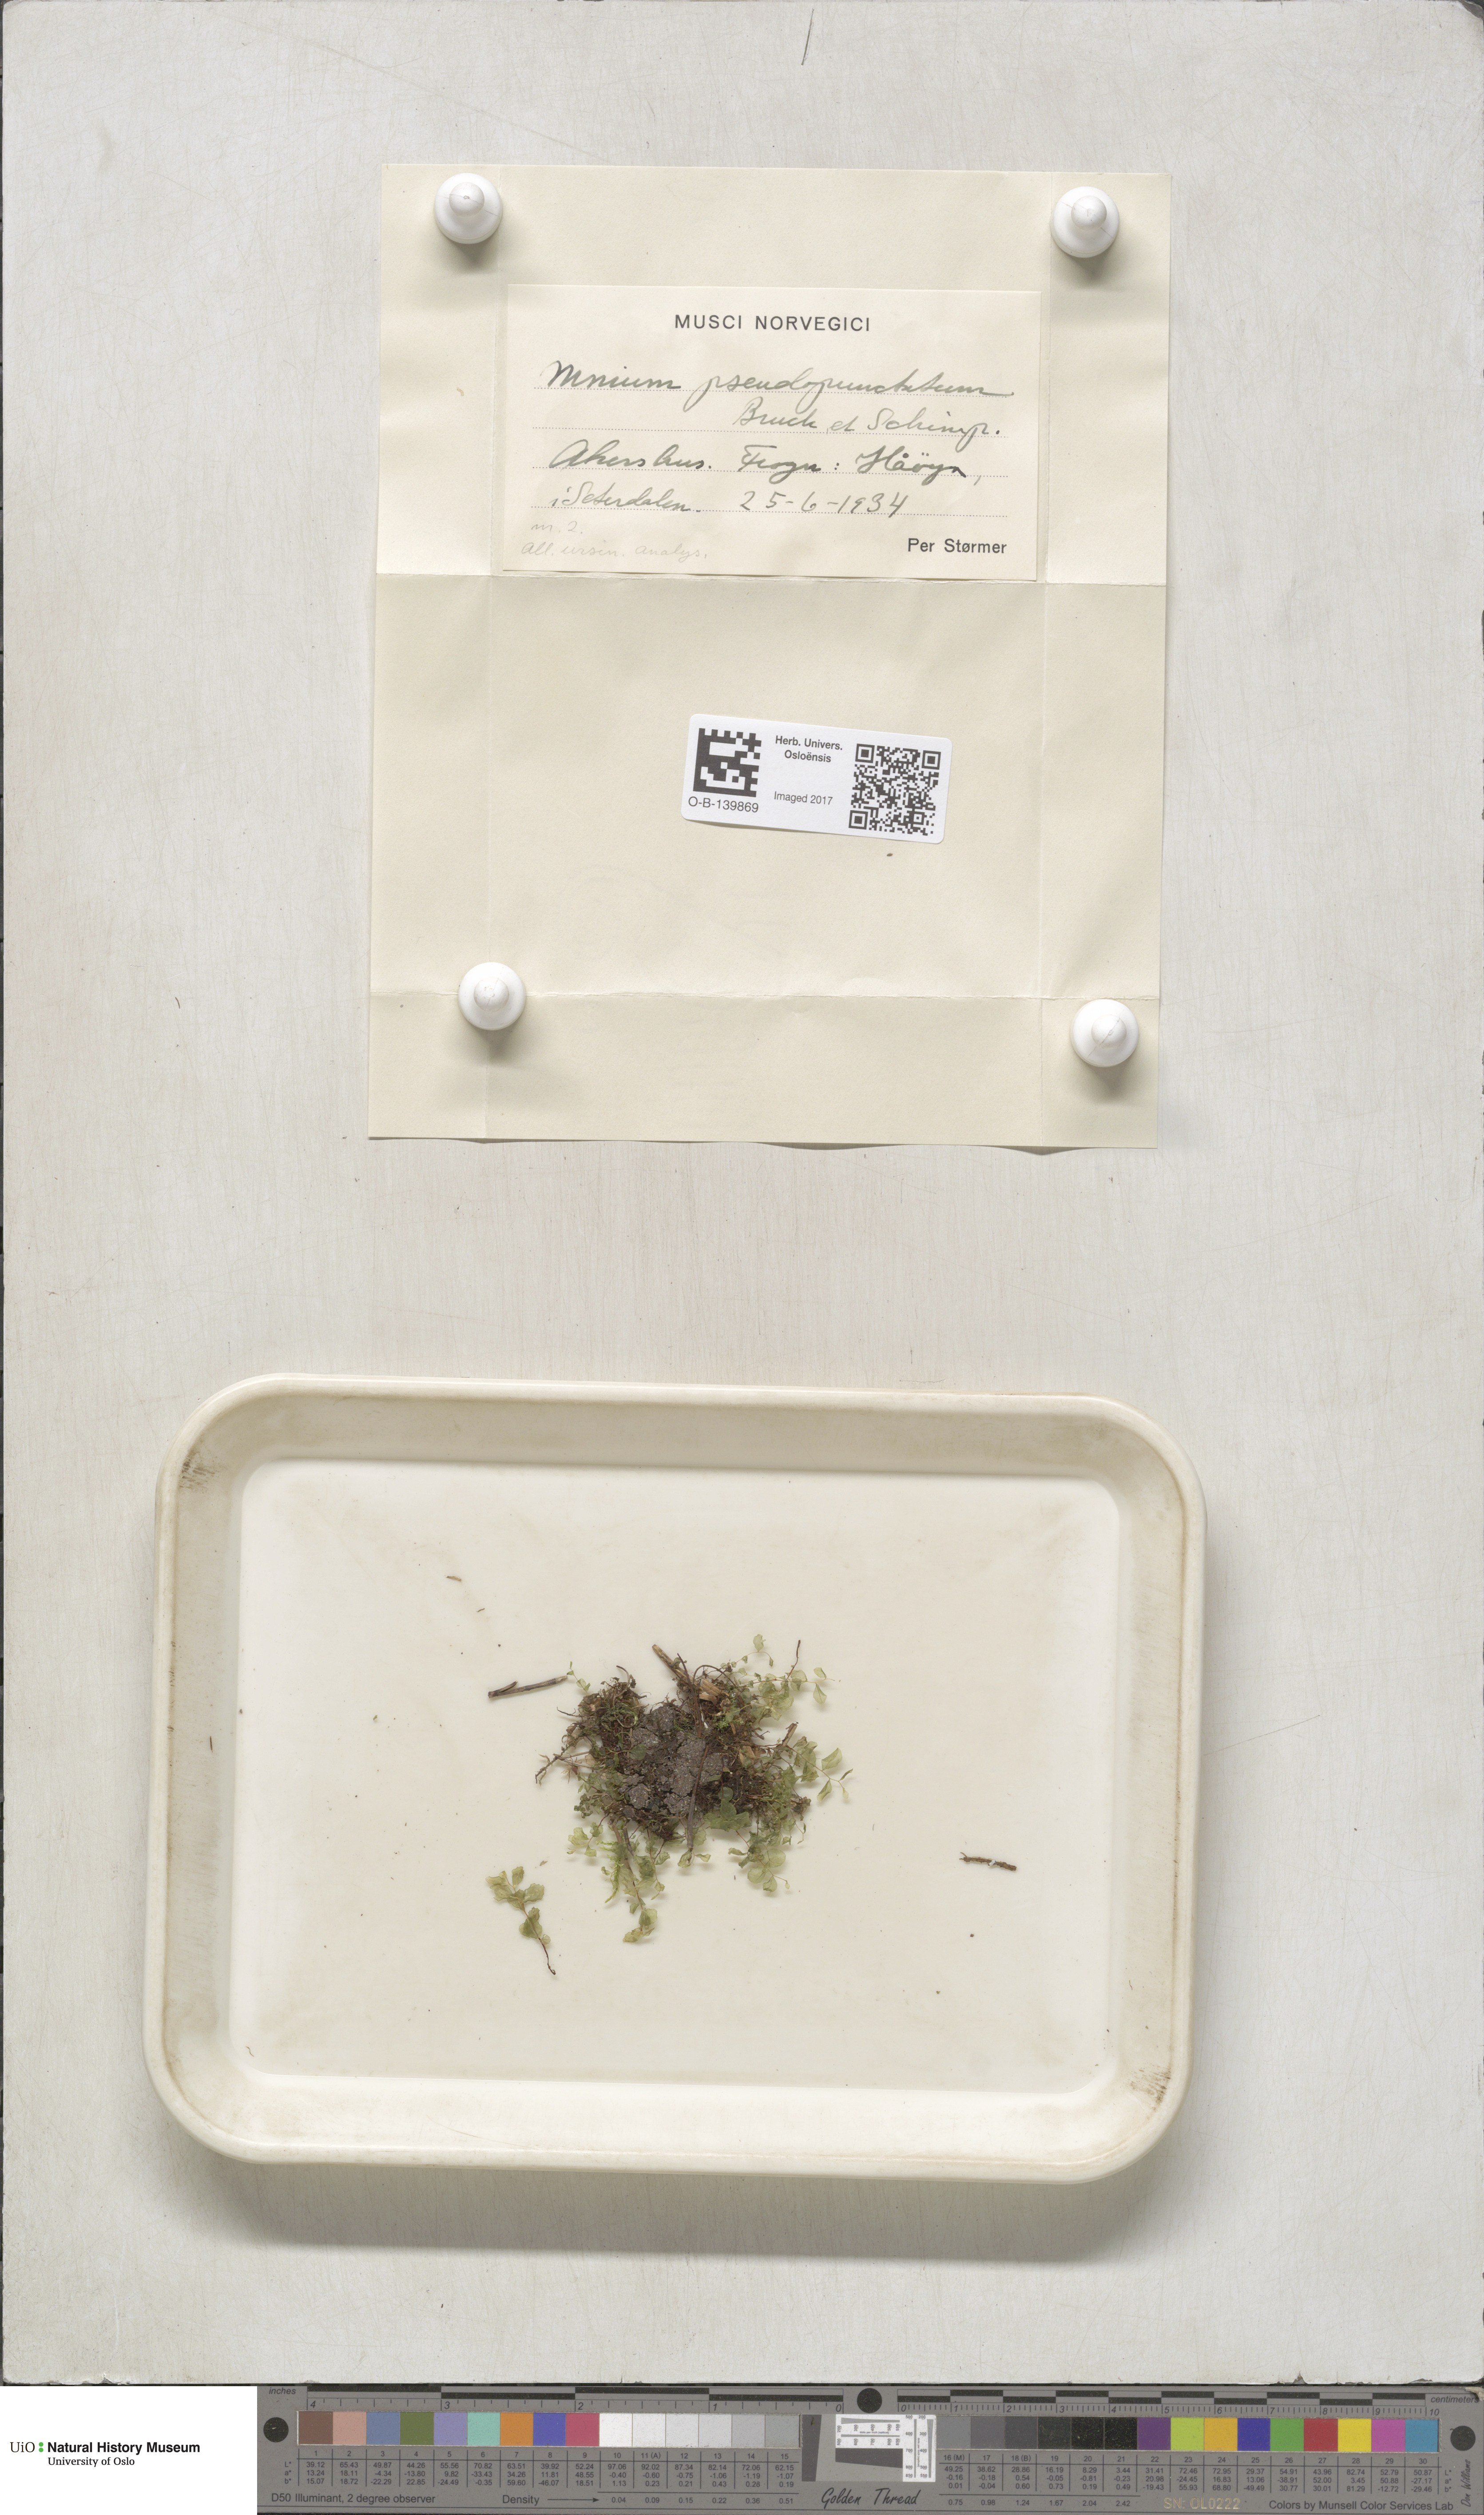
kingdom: Plantae
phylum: Bryophyta
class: Bryopsida
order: Bryales
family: Mniaceae
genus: Rhizomnium
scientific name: Rhizomnium pseudopunctatum
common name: Felted leafy moss
